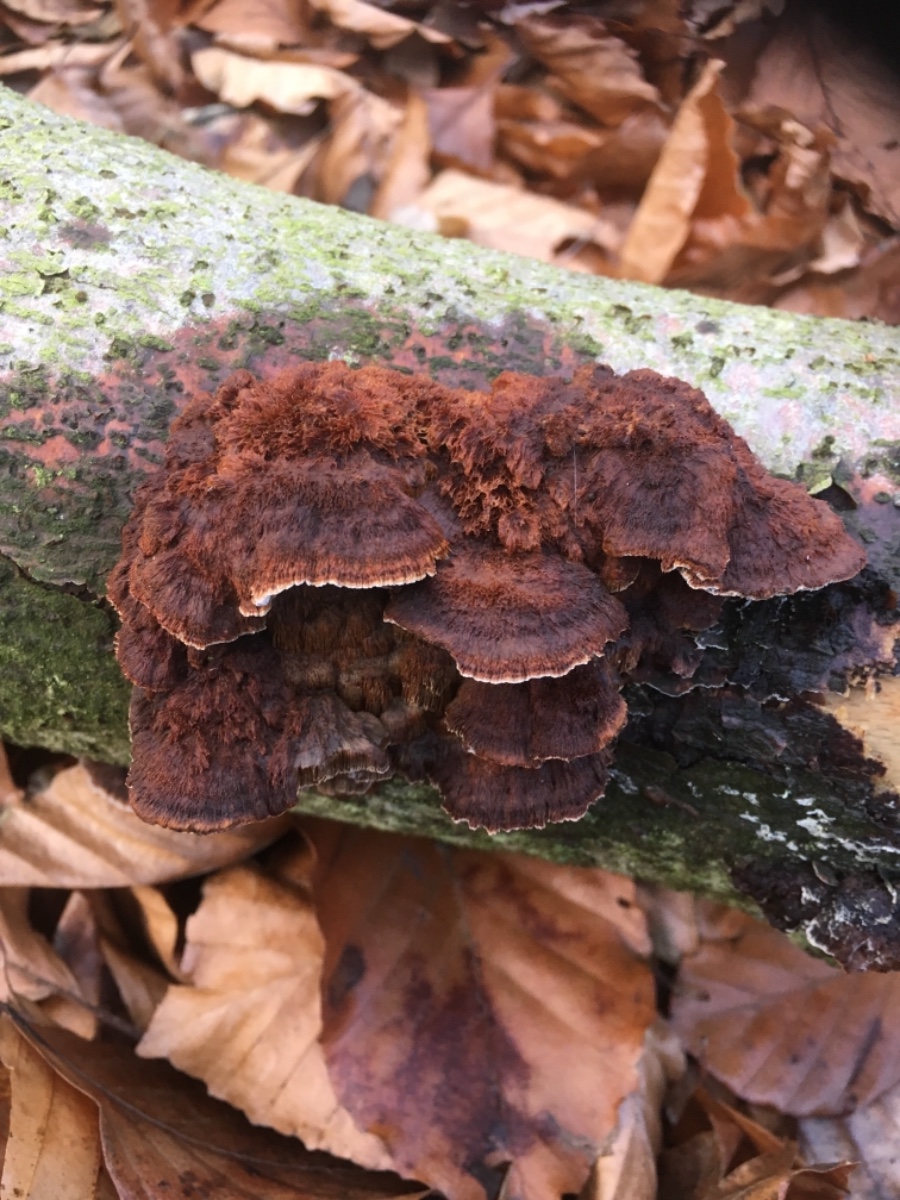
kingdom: Fungi
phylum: Basidiomycota
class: Agaricomycetes
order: Polyporales
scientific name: Polyporales
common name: poresvampordenen
